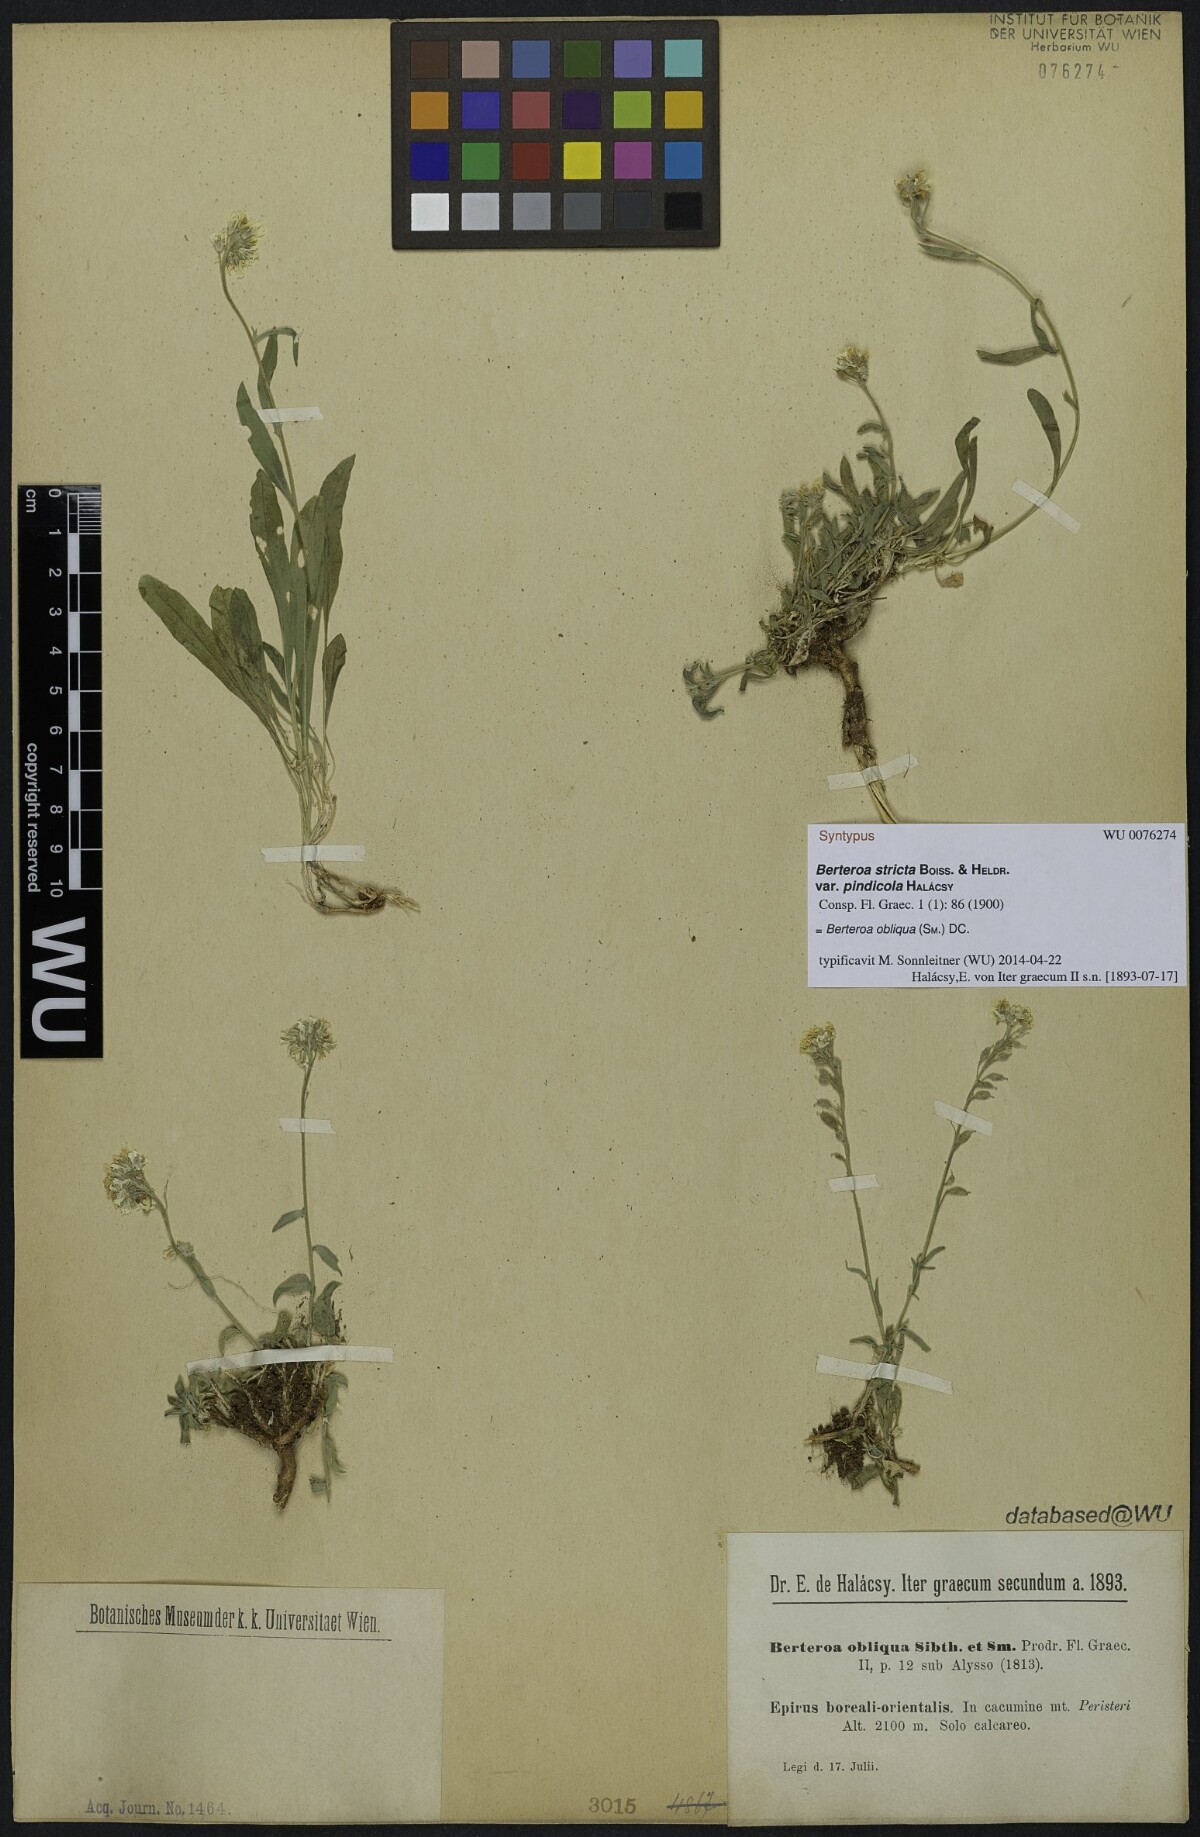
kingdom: Plantae
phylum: Tracheophyta
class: Magnoliopsida
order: Brassicales
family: Brassicaceae
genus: Berteroa
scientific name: Berteroa incana
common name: Hoary alison
